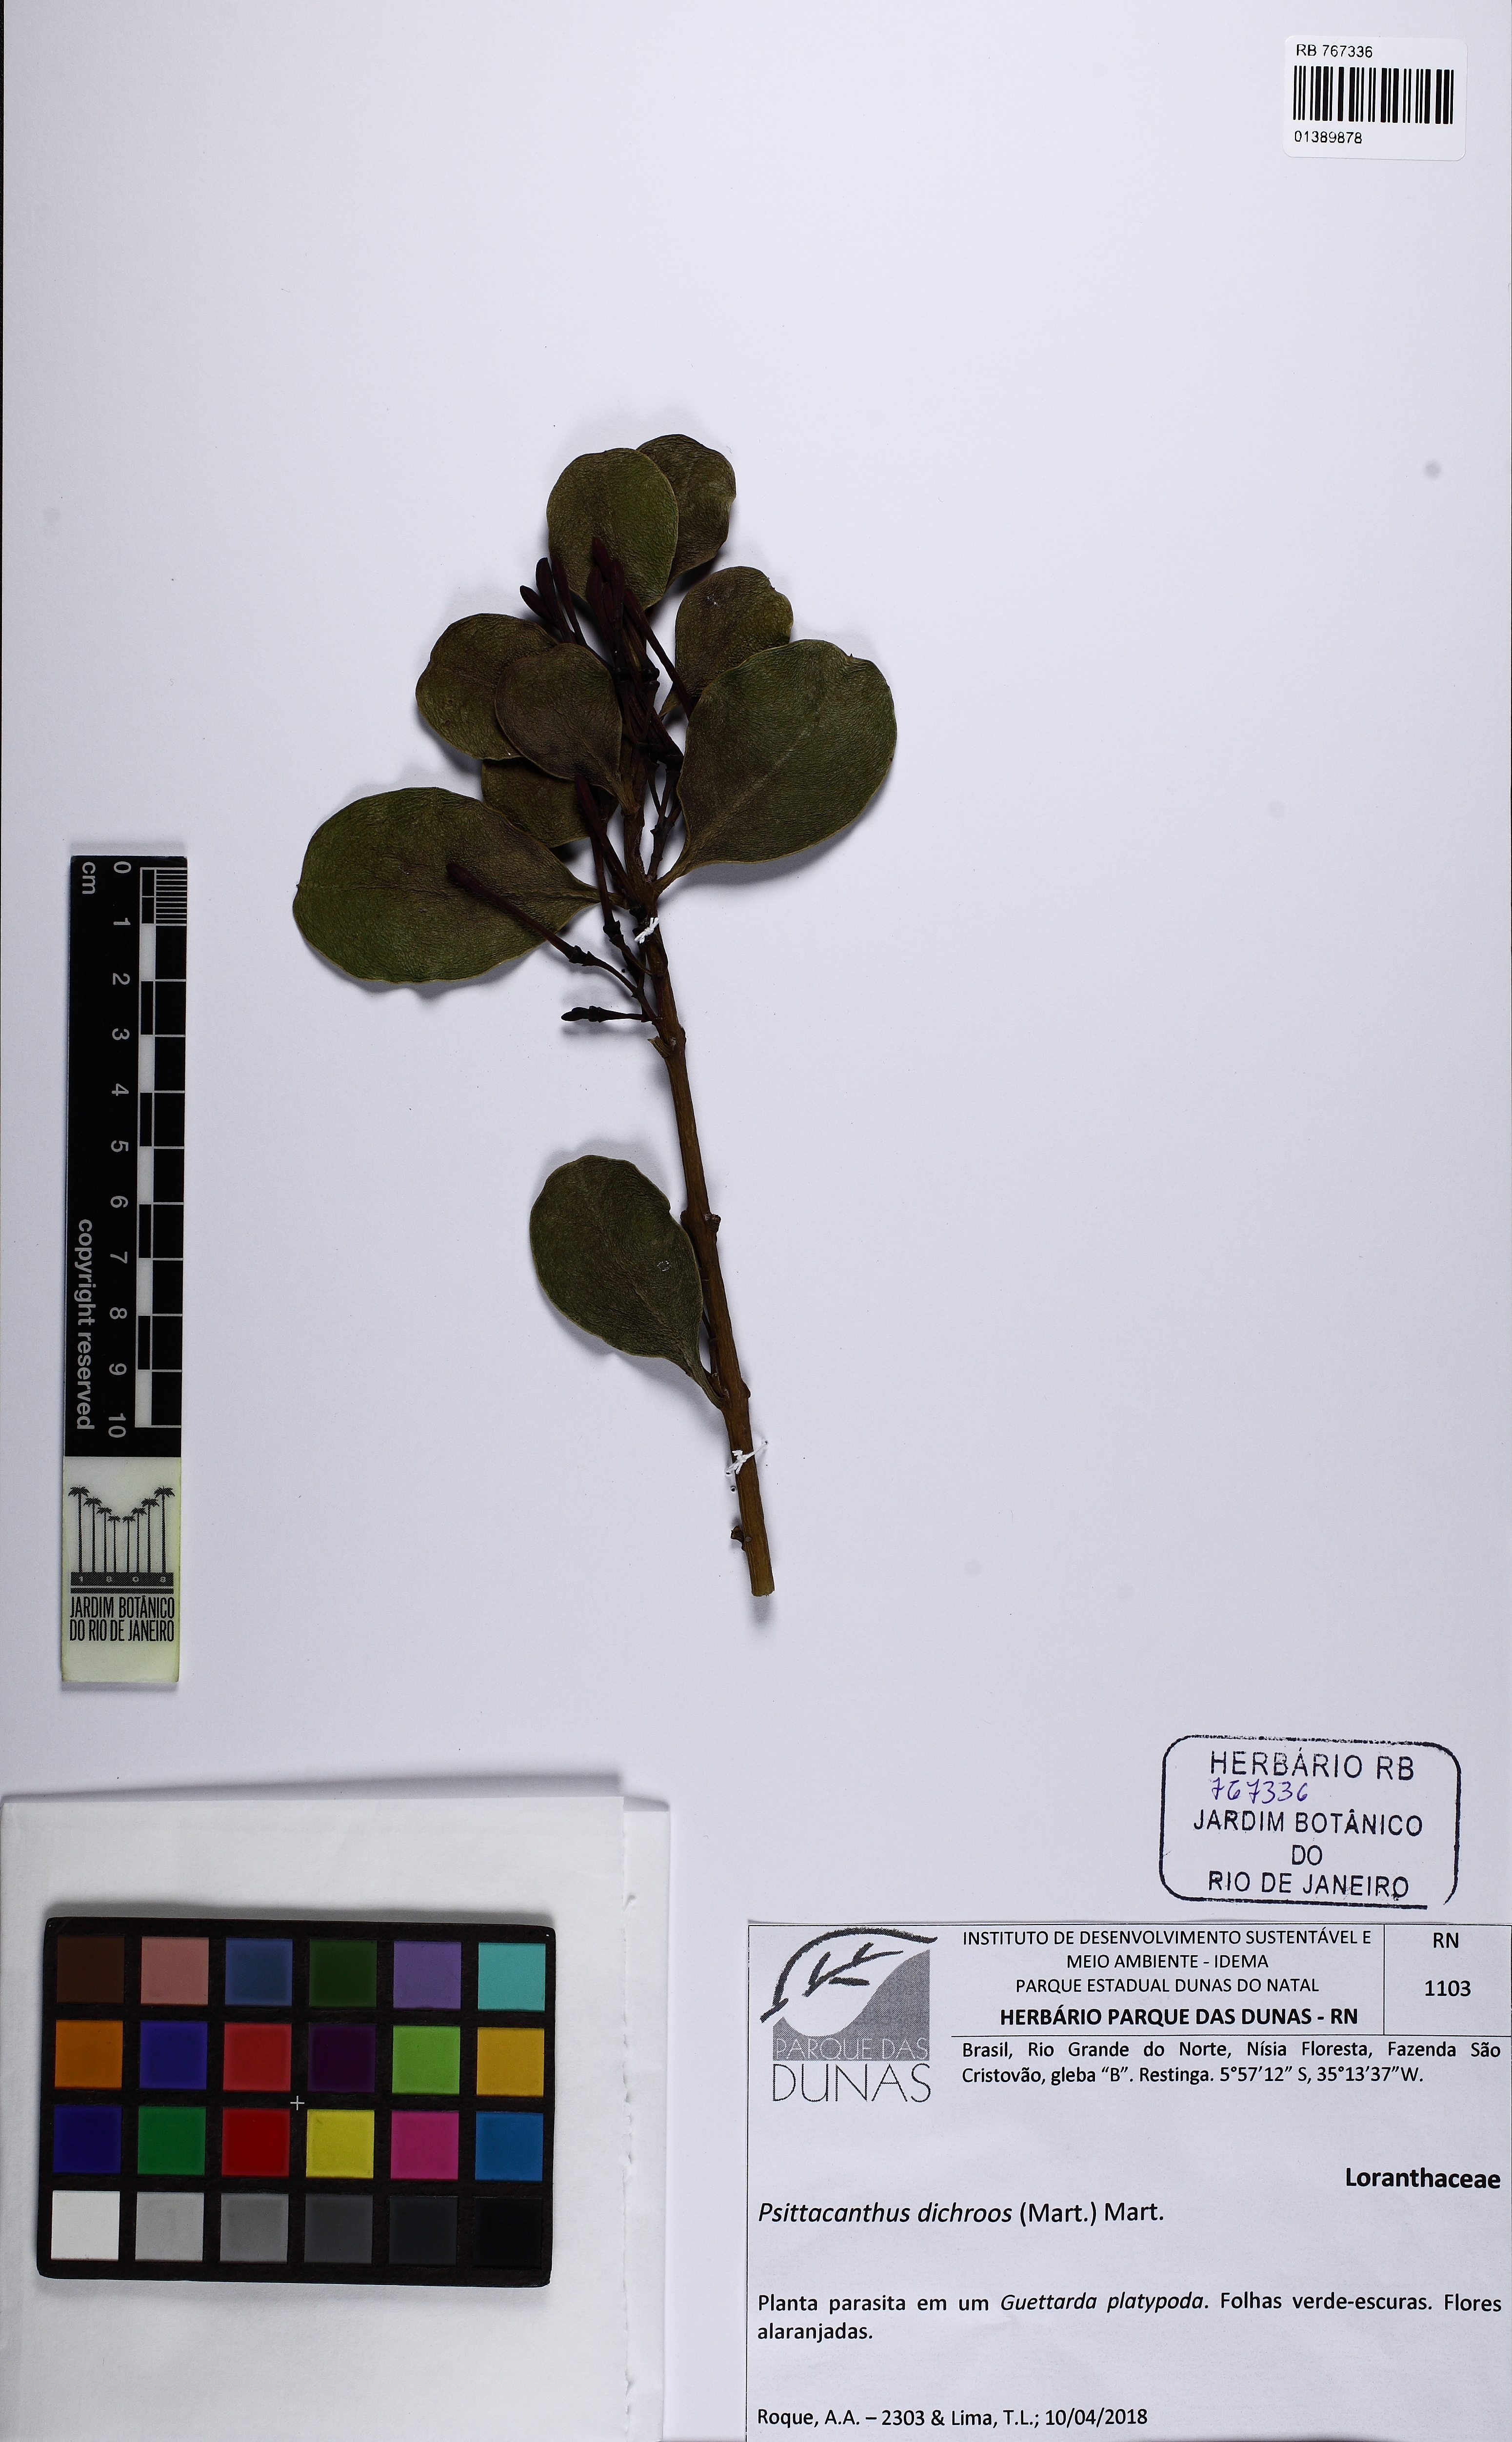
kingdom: Plantae
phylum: Tracheophyta
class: Magnoliopsida
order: Santalales
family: Loranthaceae
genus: Psittacanthus
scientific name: Psittacanthus dichroos
